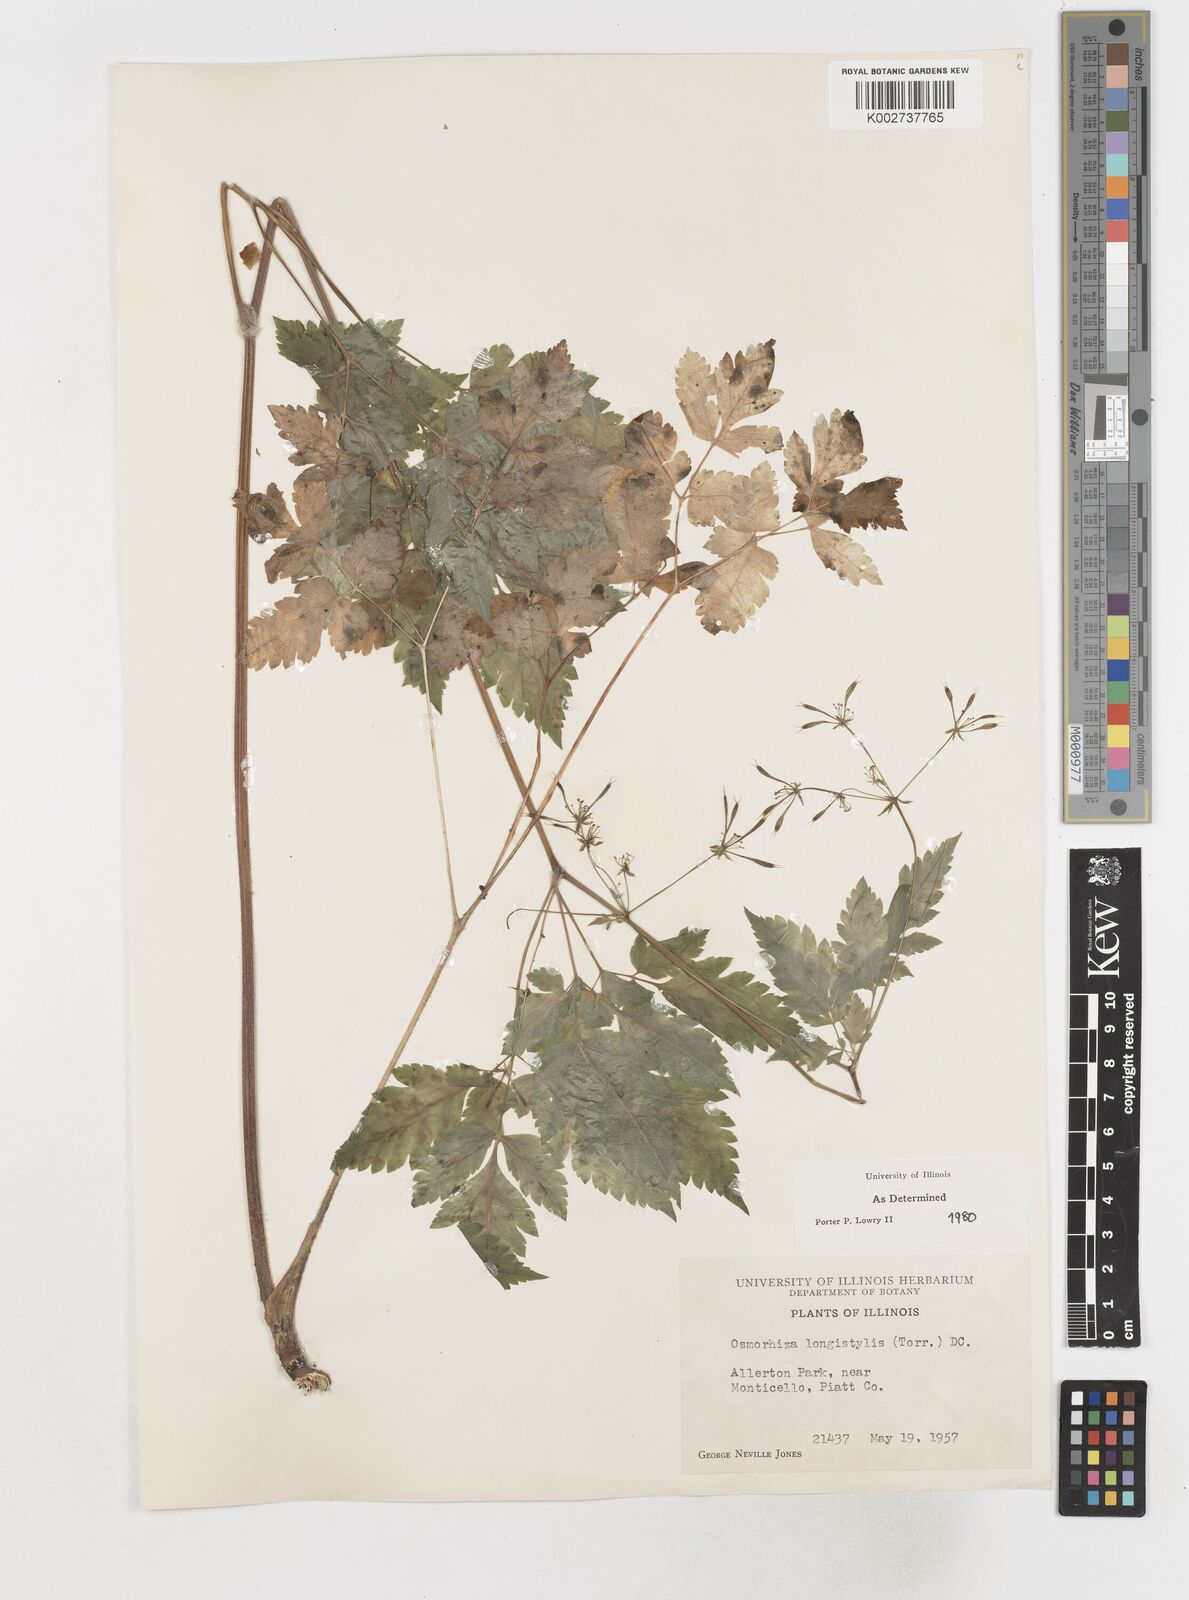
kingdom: Plantae
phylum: Tracheophyta
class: Magnoliopsida
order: Apiales
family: Apiaceae
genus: Osmorhiza
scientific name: Osmorhiza longistylis
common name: Smooth sweet cicely
